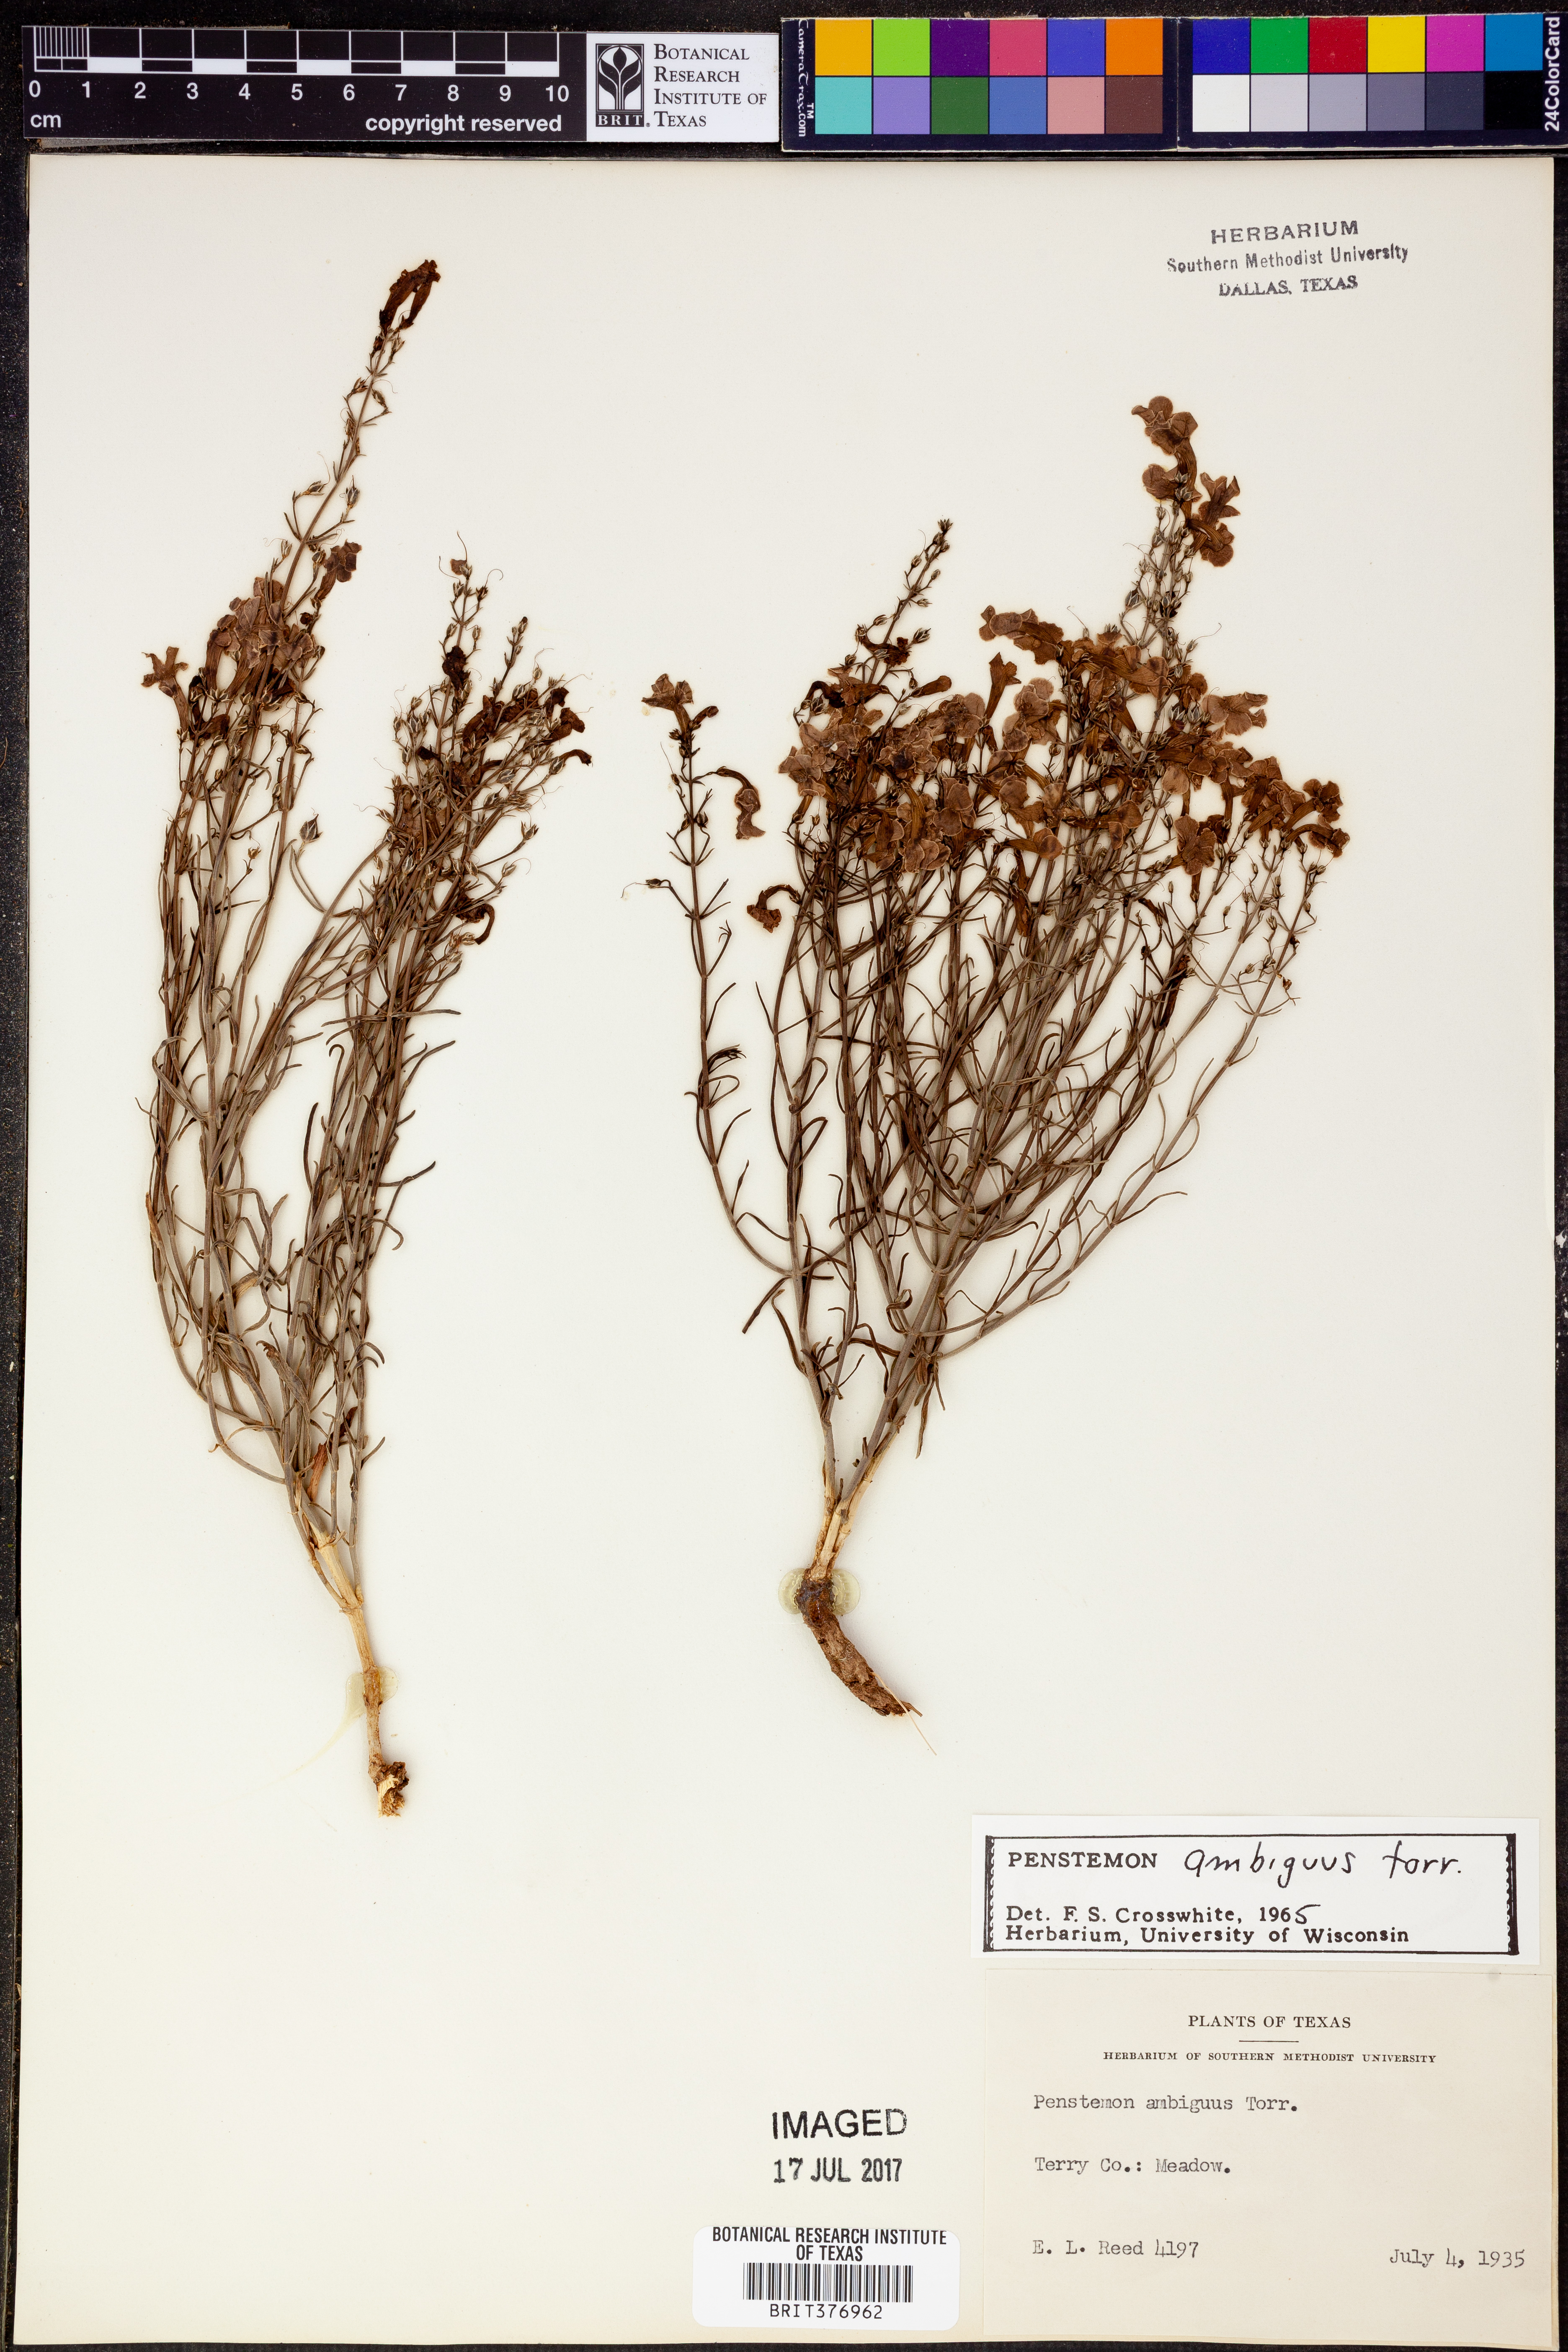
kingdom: Plantae
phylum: Tracheophyta
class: Magnoliopsida
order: Lamiales
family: Plantaginaceae
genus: Penstemon
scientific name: Penstemon ambiguus
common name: Bush penstemon
